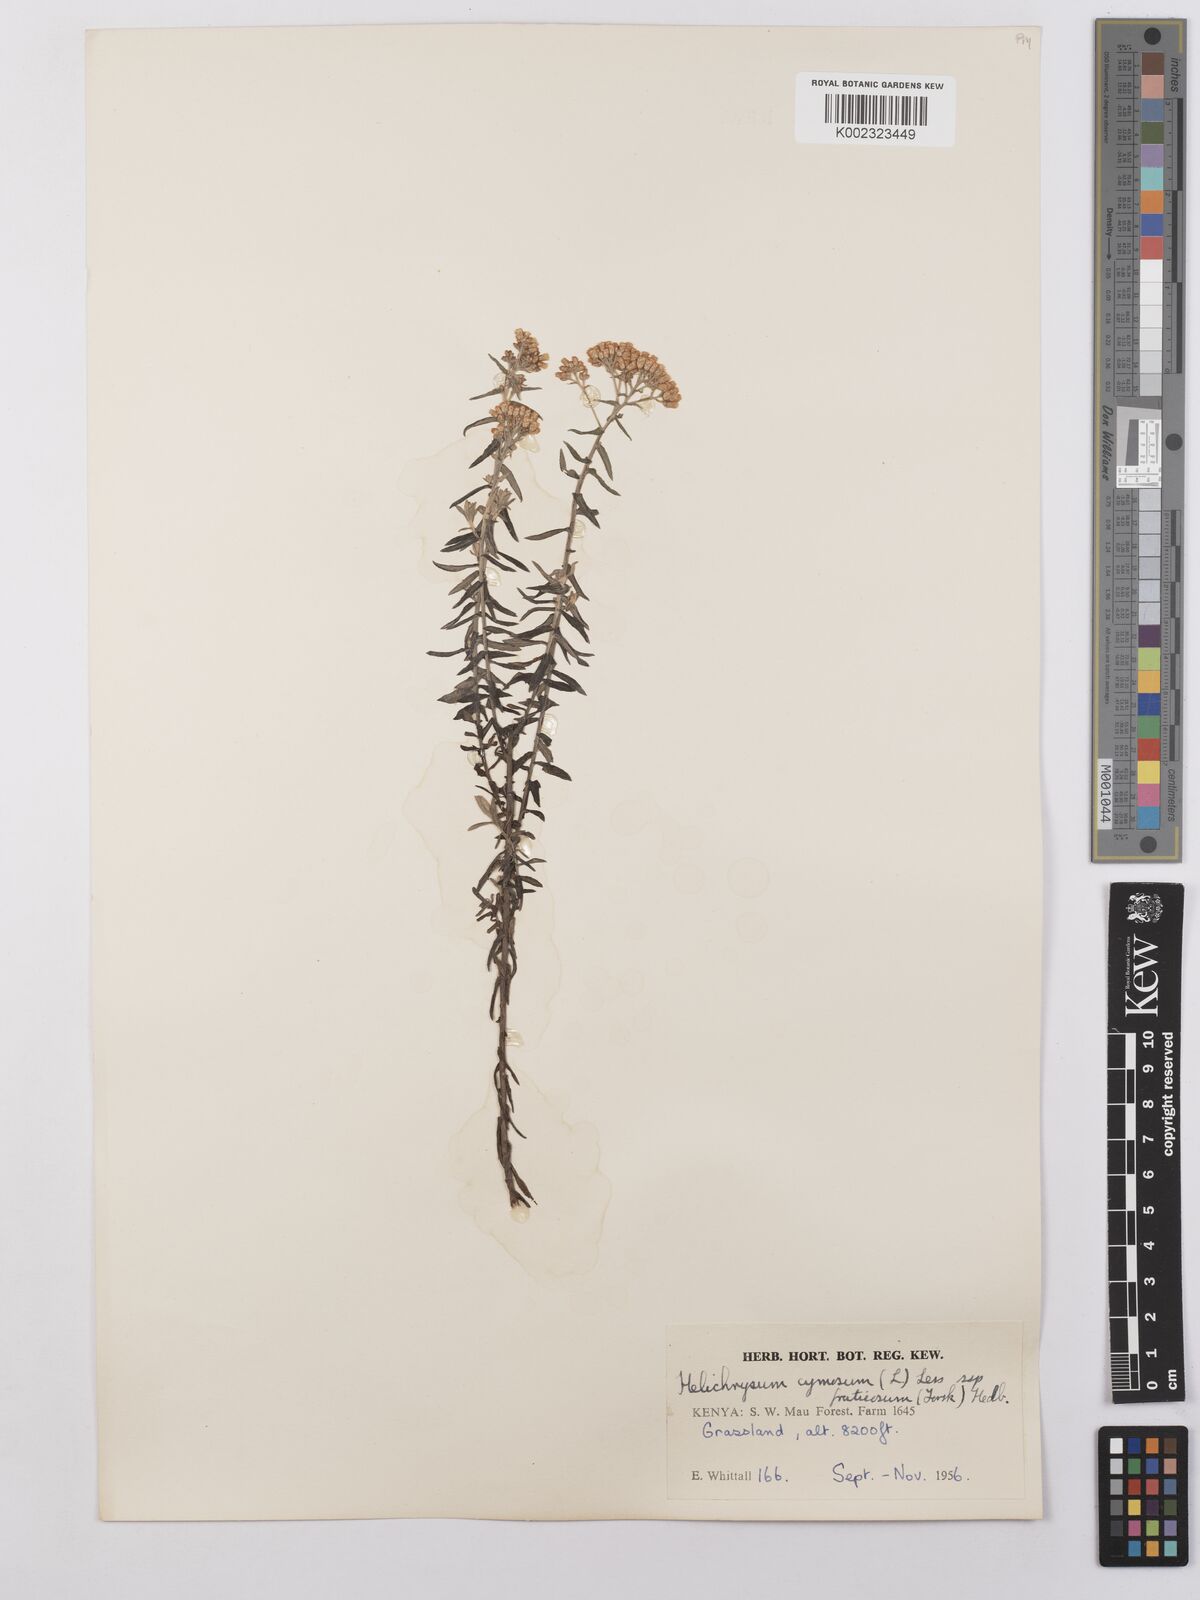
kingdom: Plantae
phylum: Tracheophyta
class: Magnoliopsida
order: Asterales
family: Asteraceae
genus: Helichrysum
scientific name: Helichrysum forskahlii
